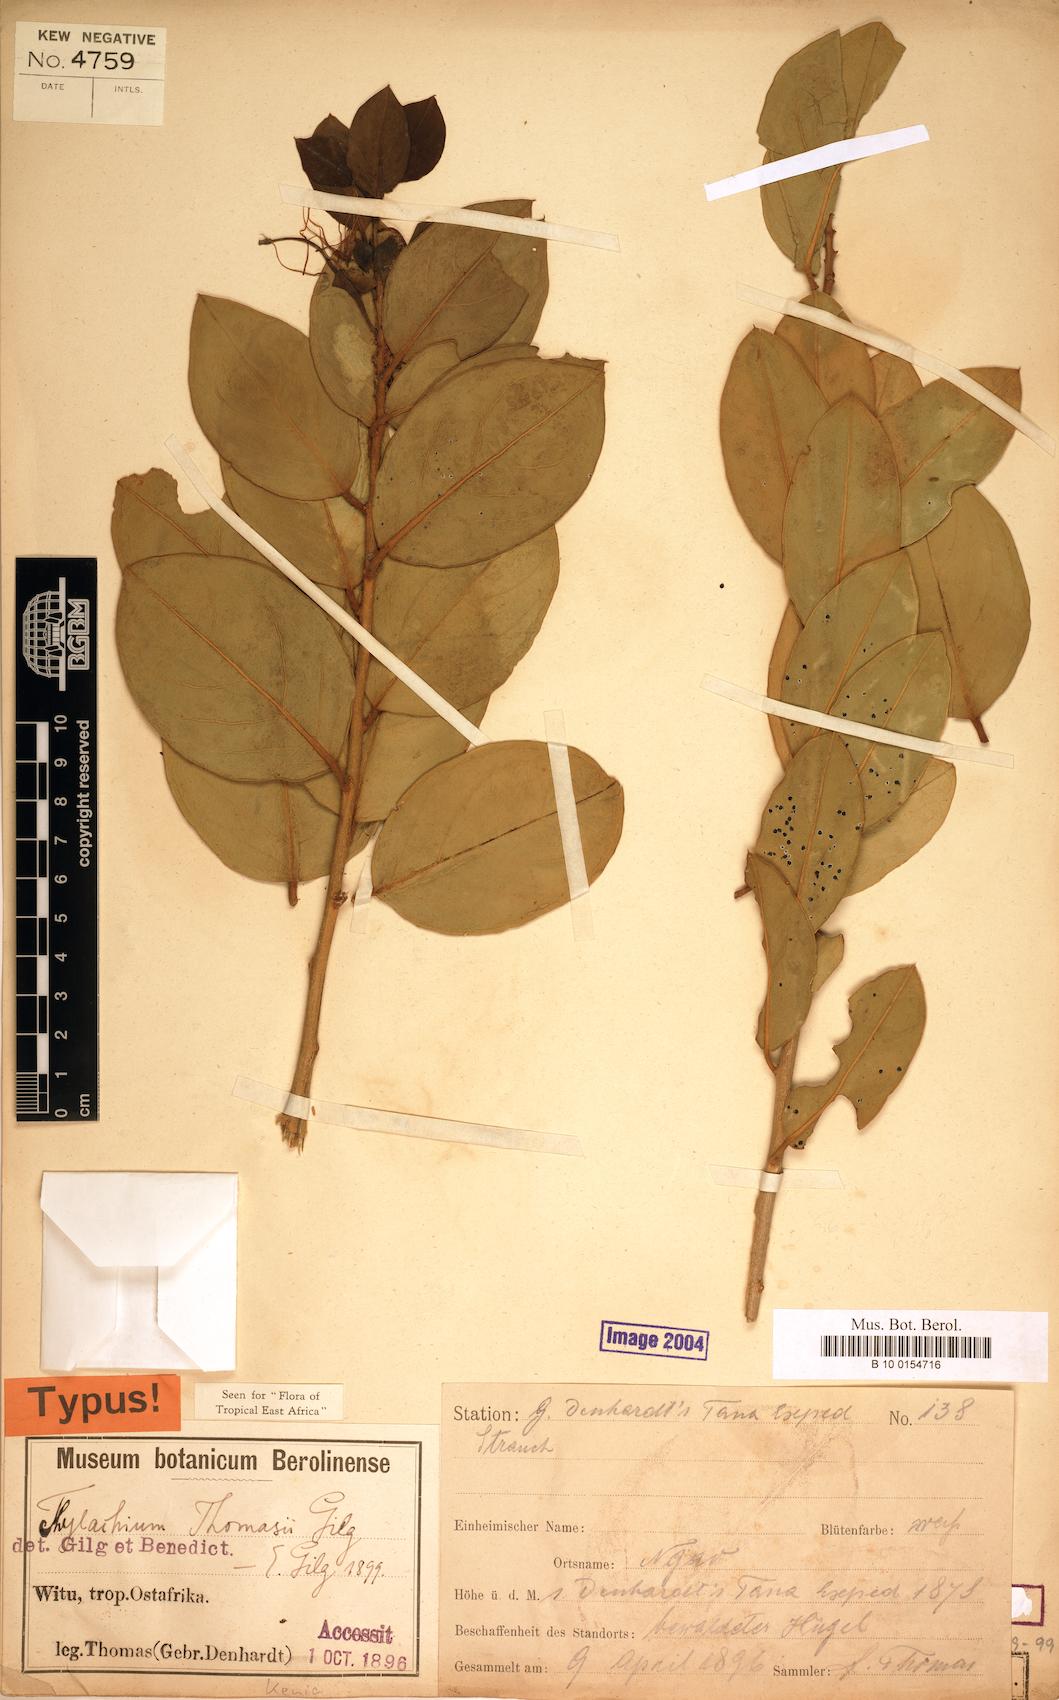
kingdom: Plantae
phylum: Tracheophyta
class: Magnoliopsida
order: Brassicales
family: Capparaceae
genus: Thilachium
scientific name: Thilachium thomasii
